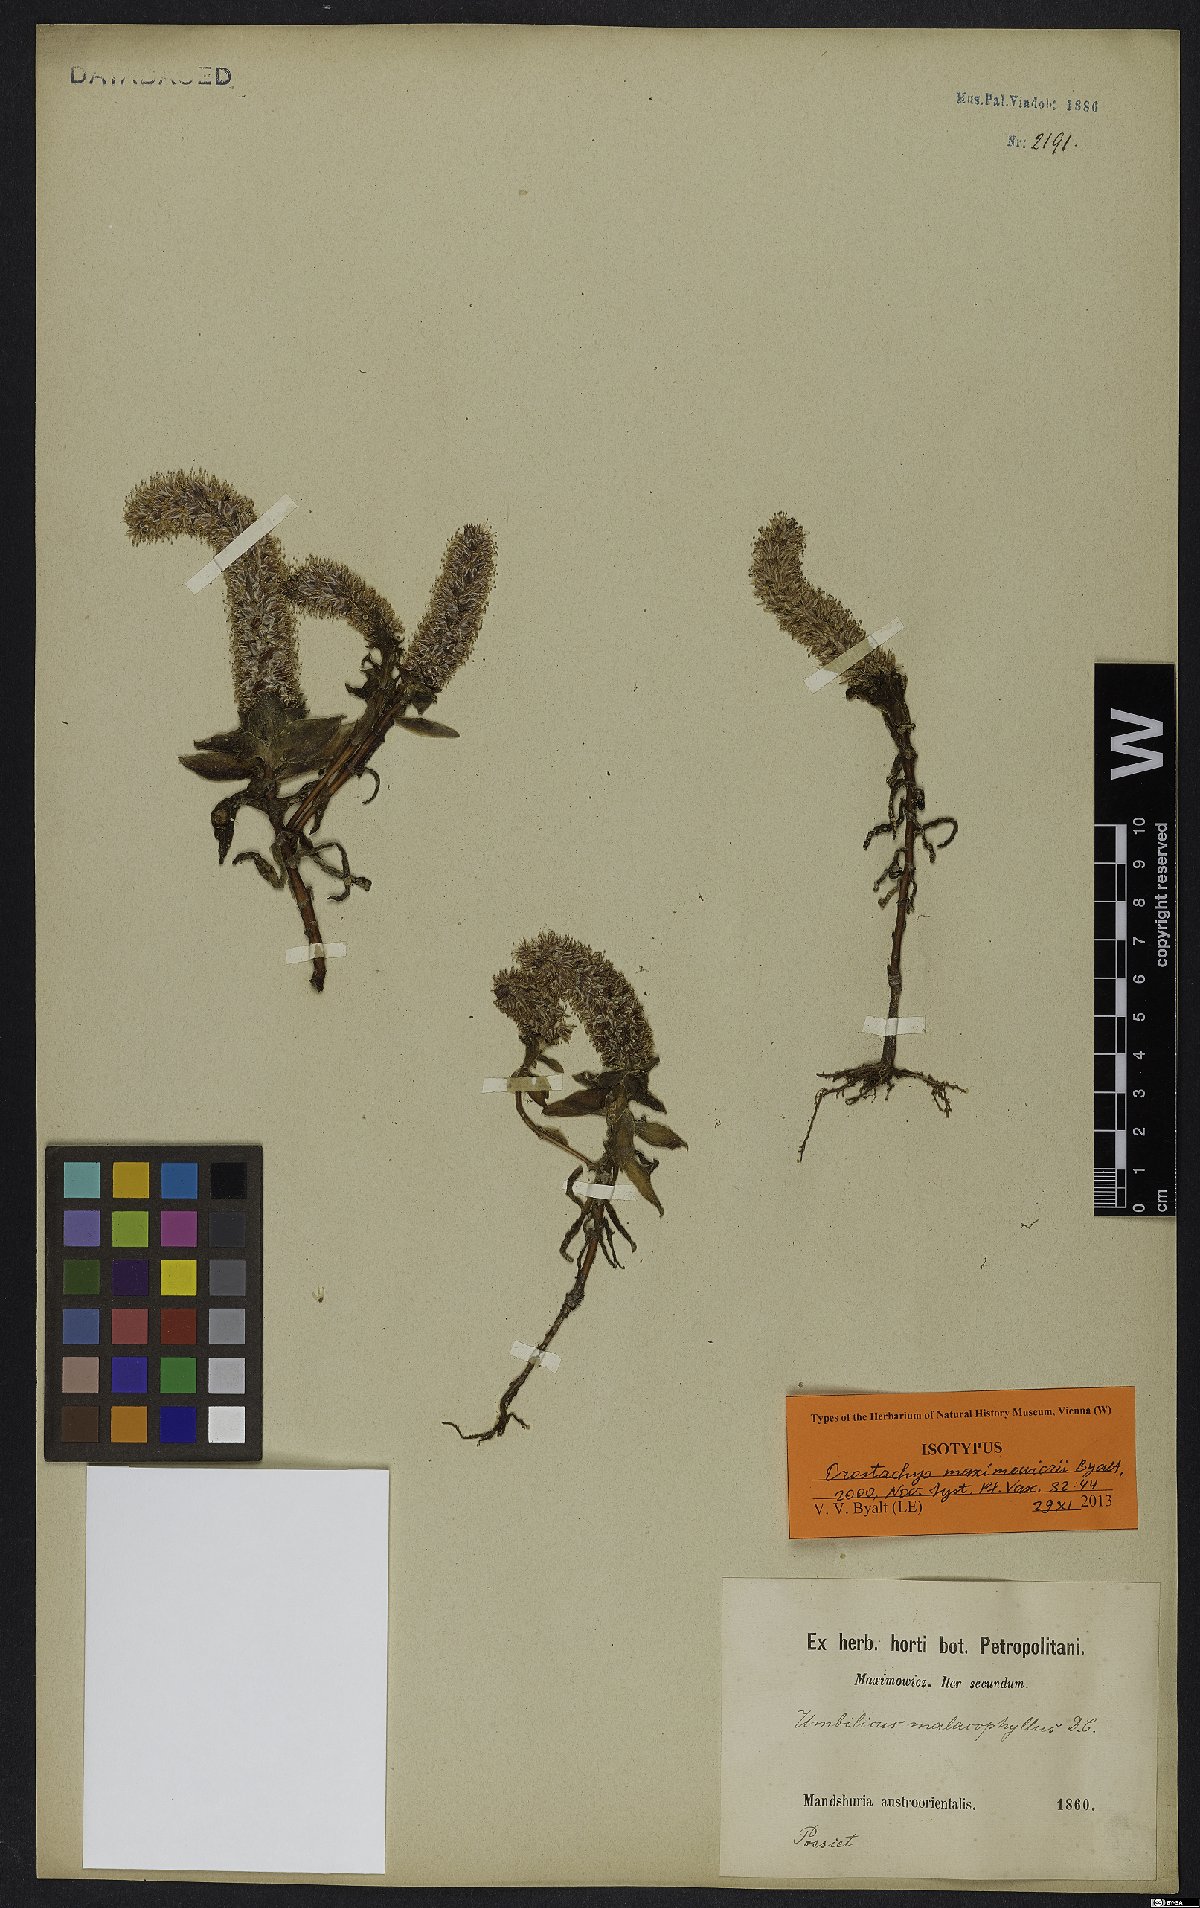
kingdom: Plantae
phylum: Tracheophyta
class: Magnoliopsida
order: Saxifragales
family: Crassulaceae
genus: Orostachys
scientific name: Orostachys maximowiczii
